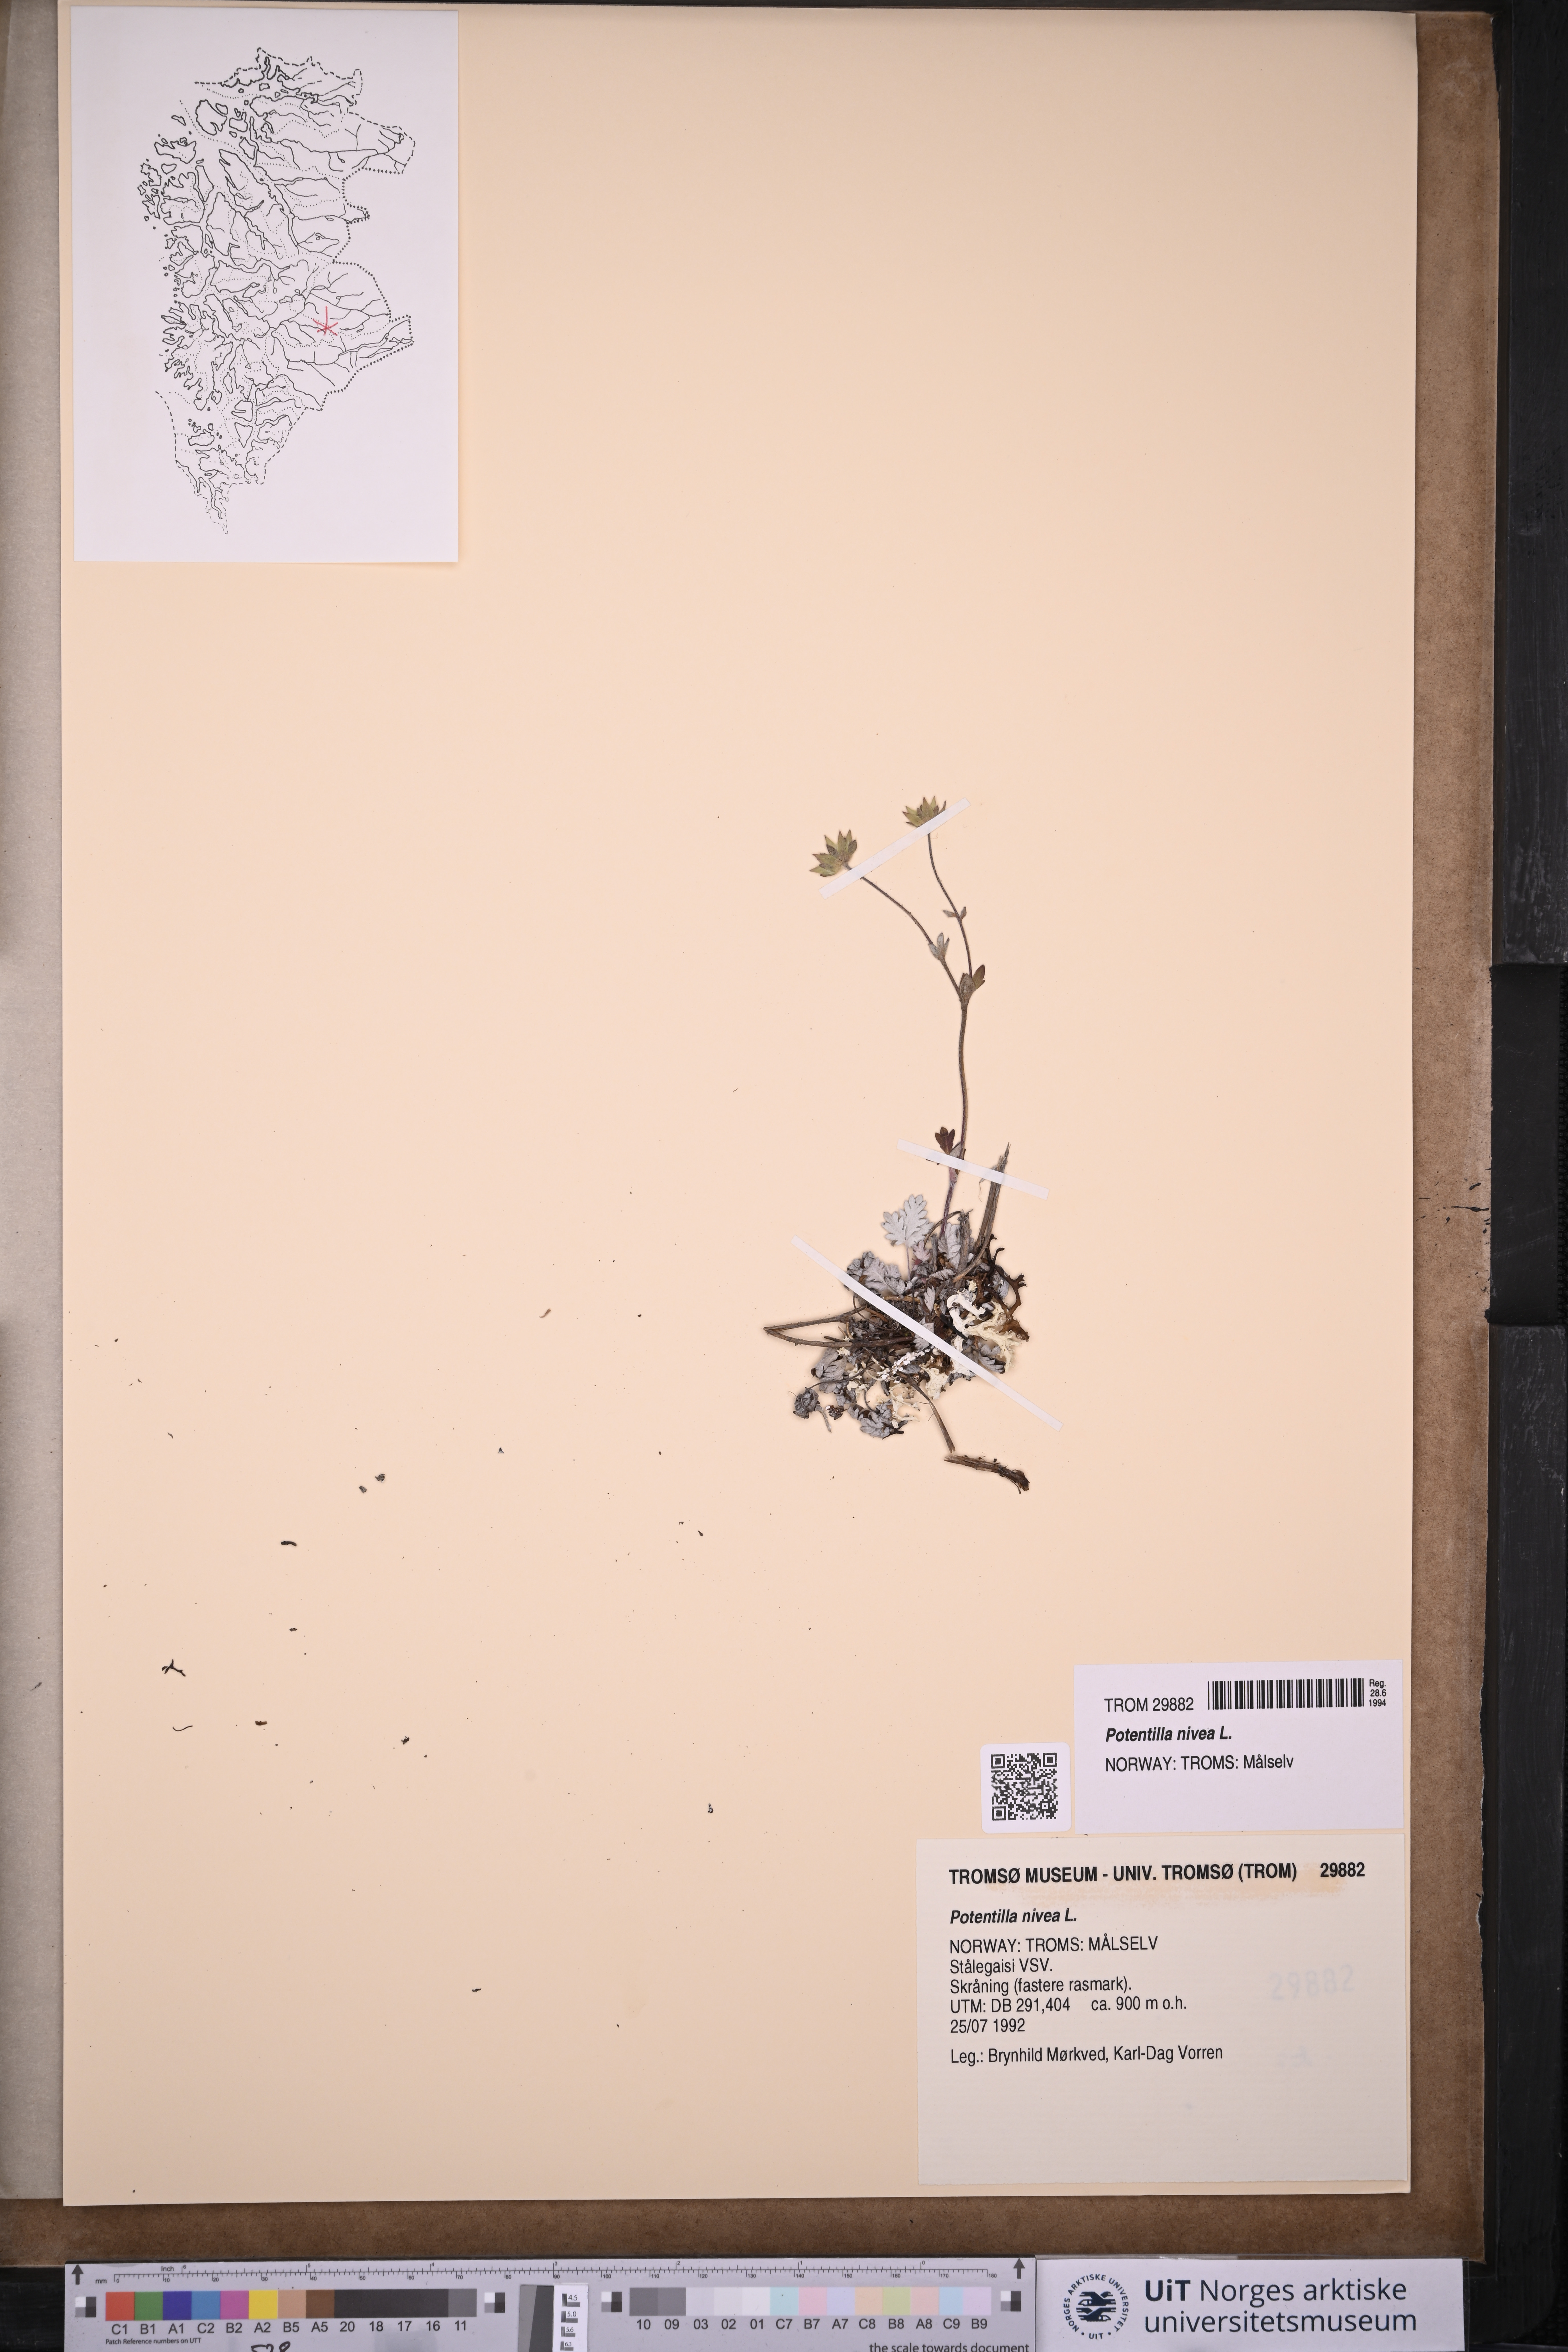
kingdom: Plantae
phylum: Tracheophyta
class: Magnoliopsida
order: Rosales
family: Rosaceae
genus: Potentilla
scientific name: Potentilla arenosa
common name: Bluff cinquefoil
